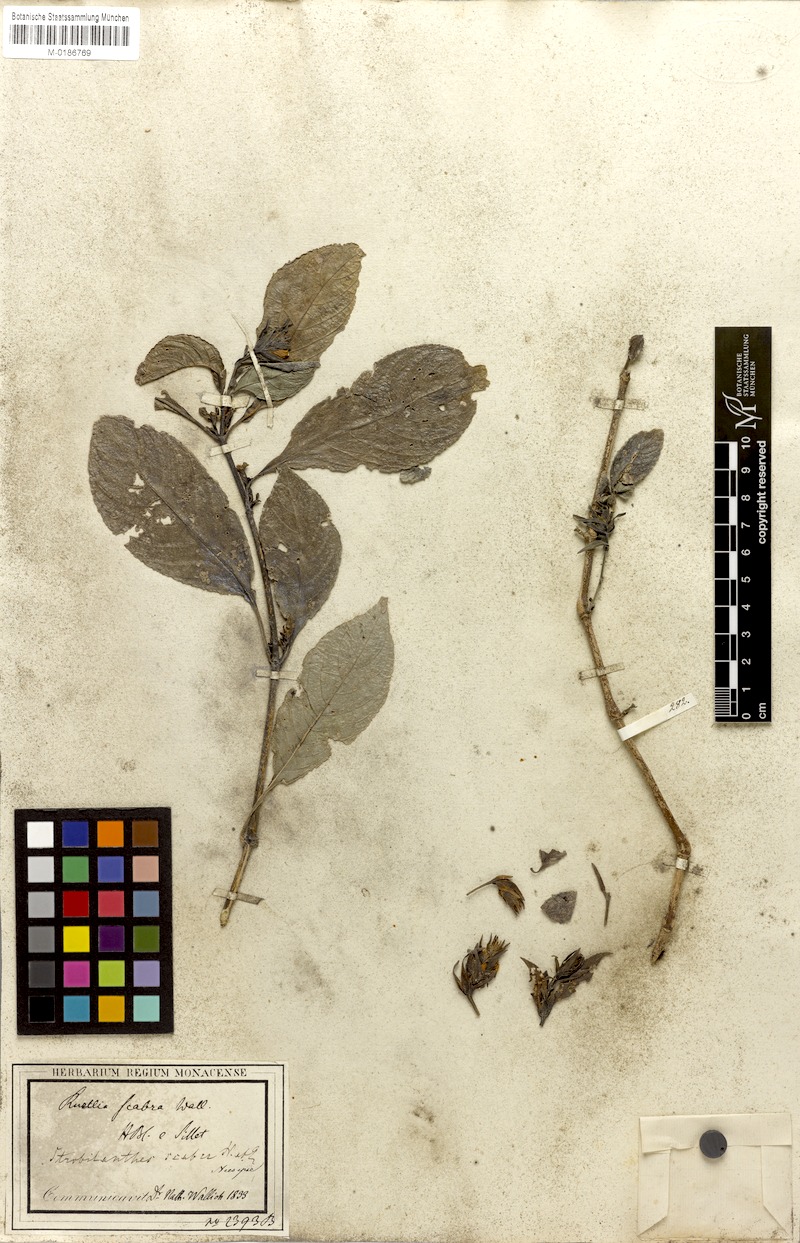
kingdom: Plantae
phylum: Tracheophyta
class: Magnoliopsida
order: Lamiales
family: Acanthaceae
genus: Strobilanthes
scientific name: Strobilanthes scabra
